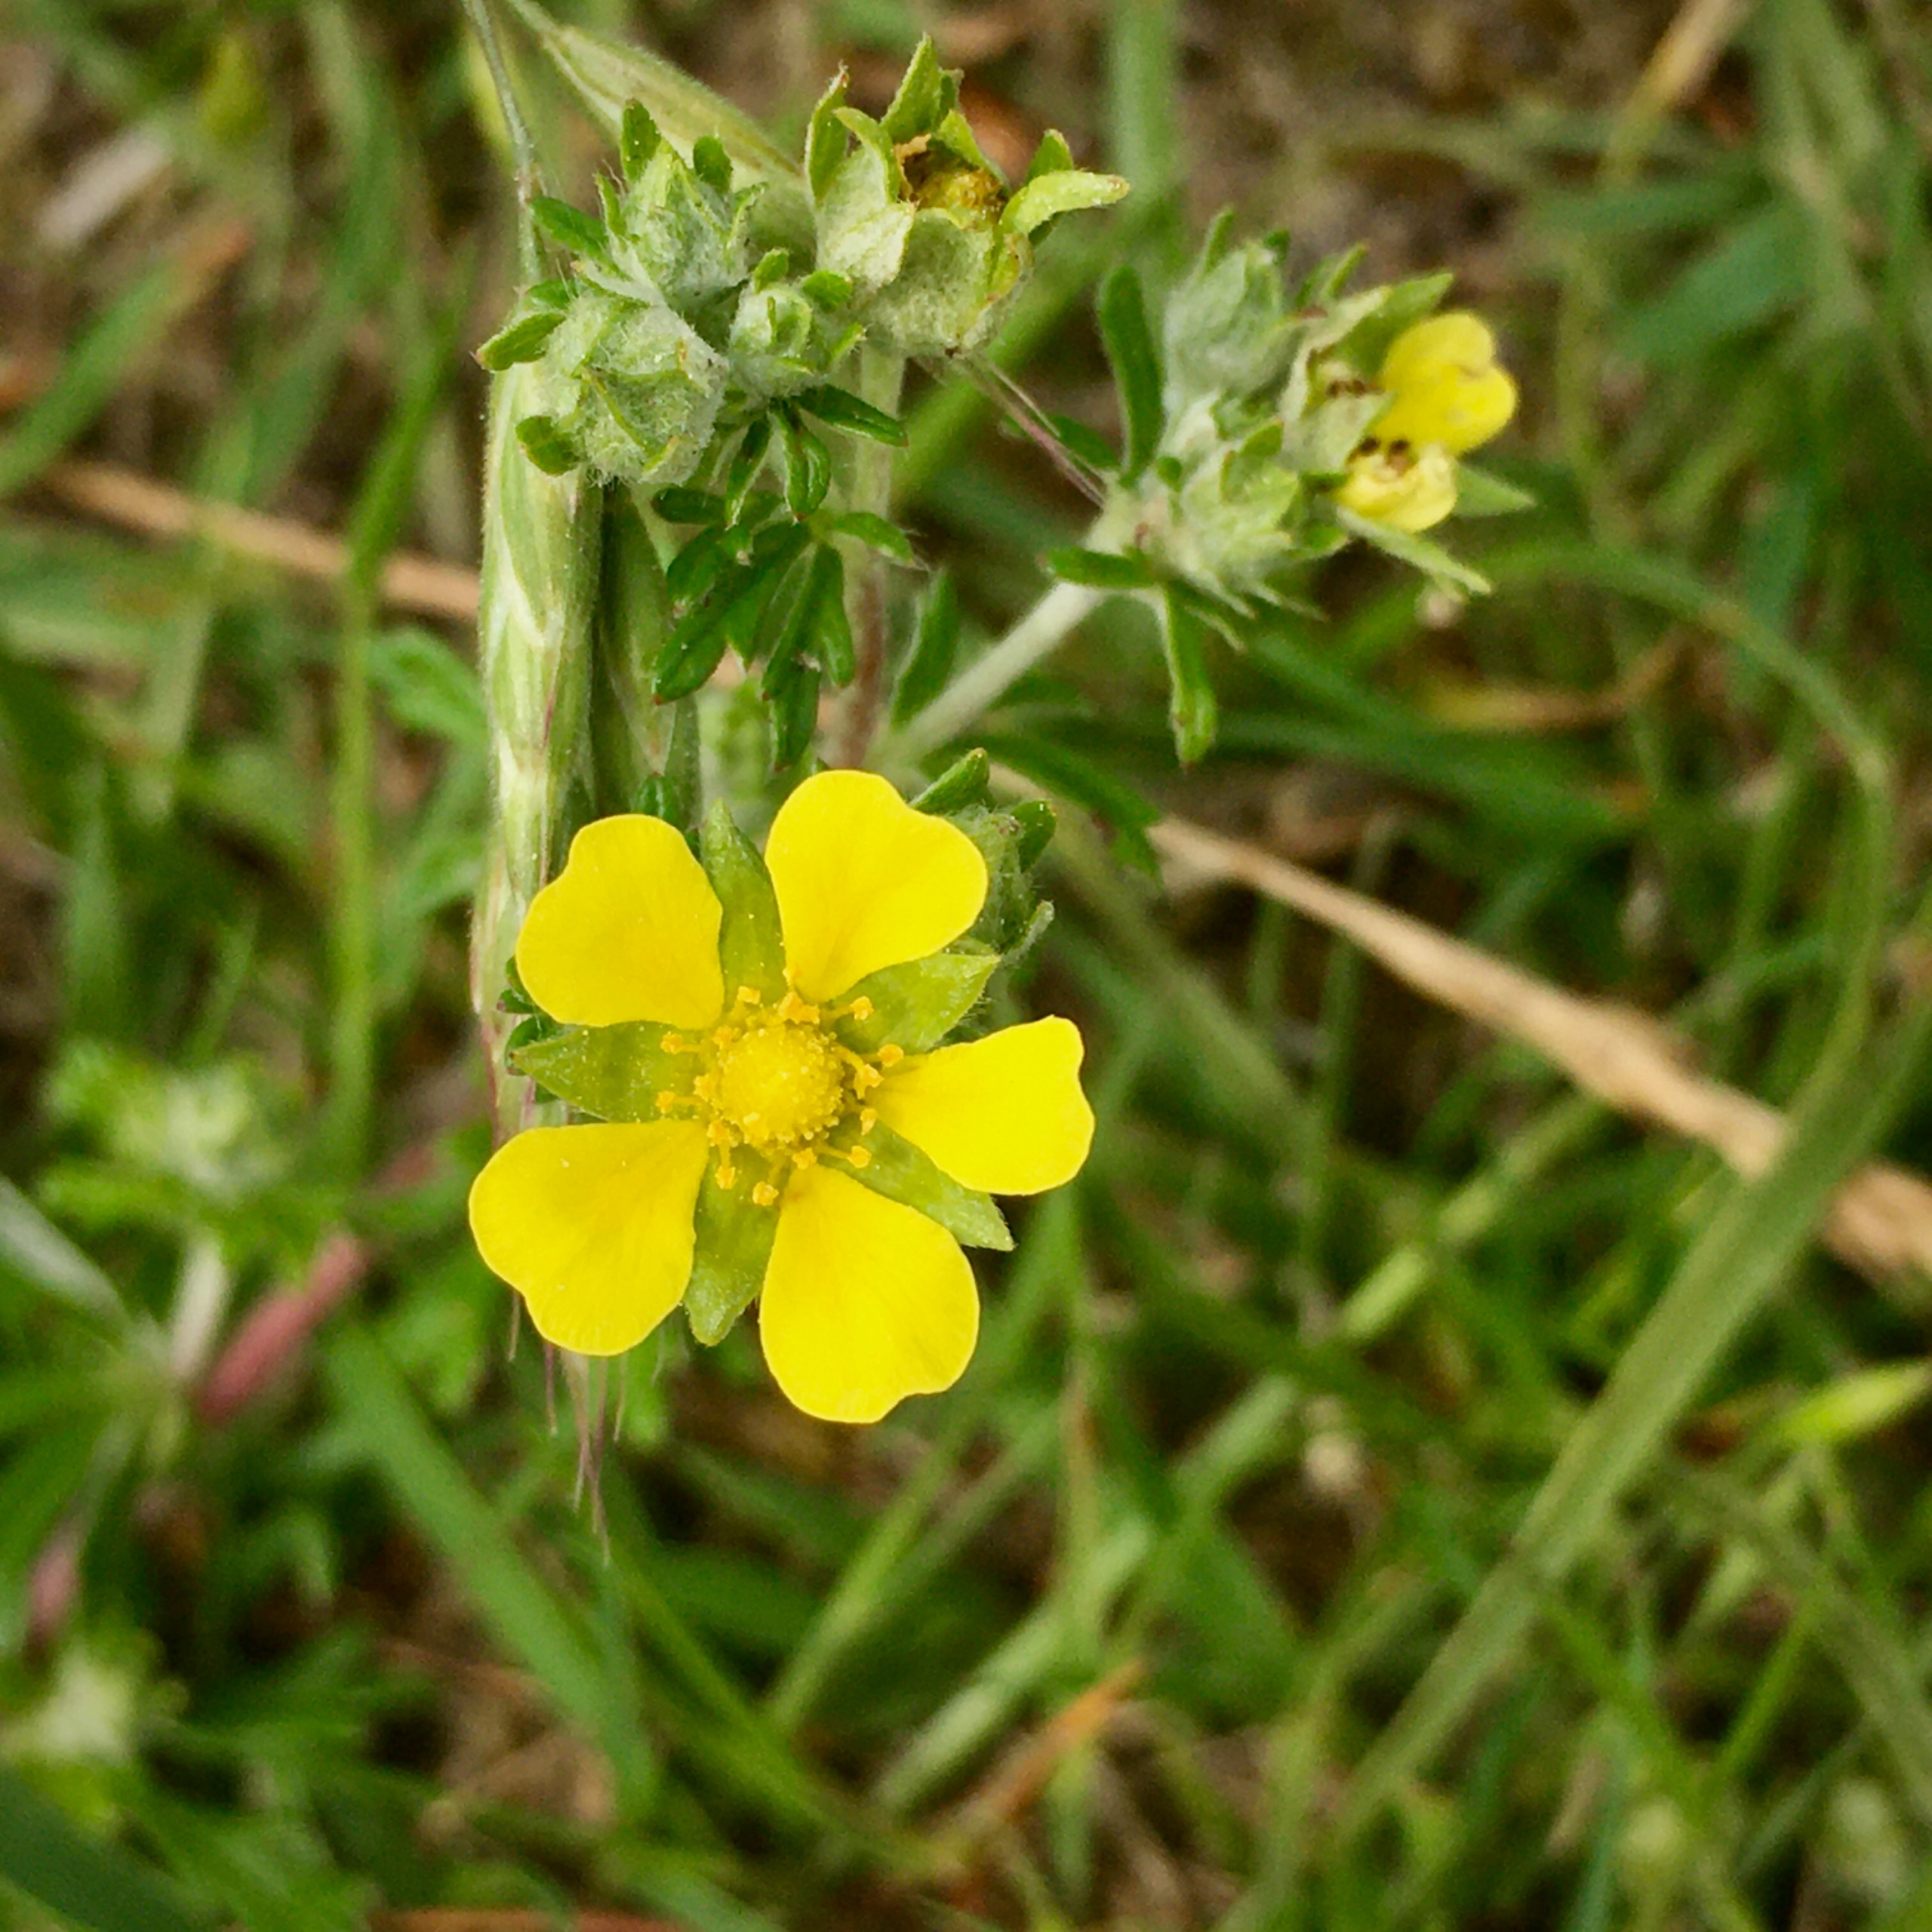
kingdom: Plantae
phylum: Tracheophyta
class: Magnoliopsida
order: Rosales
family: Rosaceae
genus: Potentilla
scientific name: Potentilla argentea
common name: Sølv-potentil
